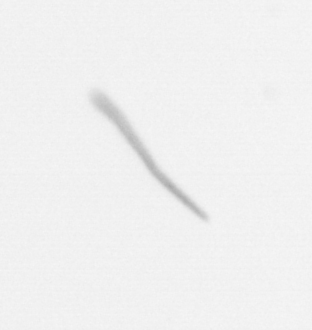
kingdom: Chromista
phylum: Ochrophyta
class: Bacillariophyceae
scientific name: Bacillariophyceae
